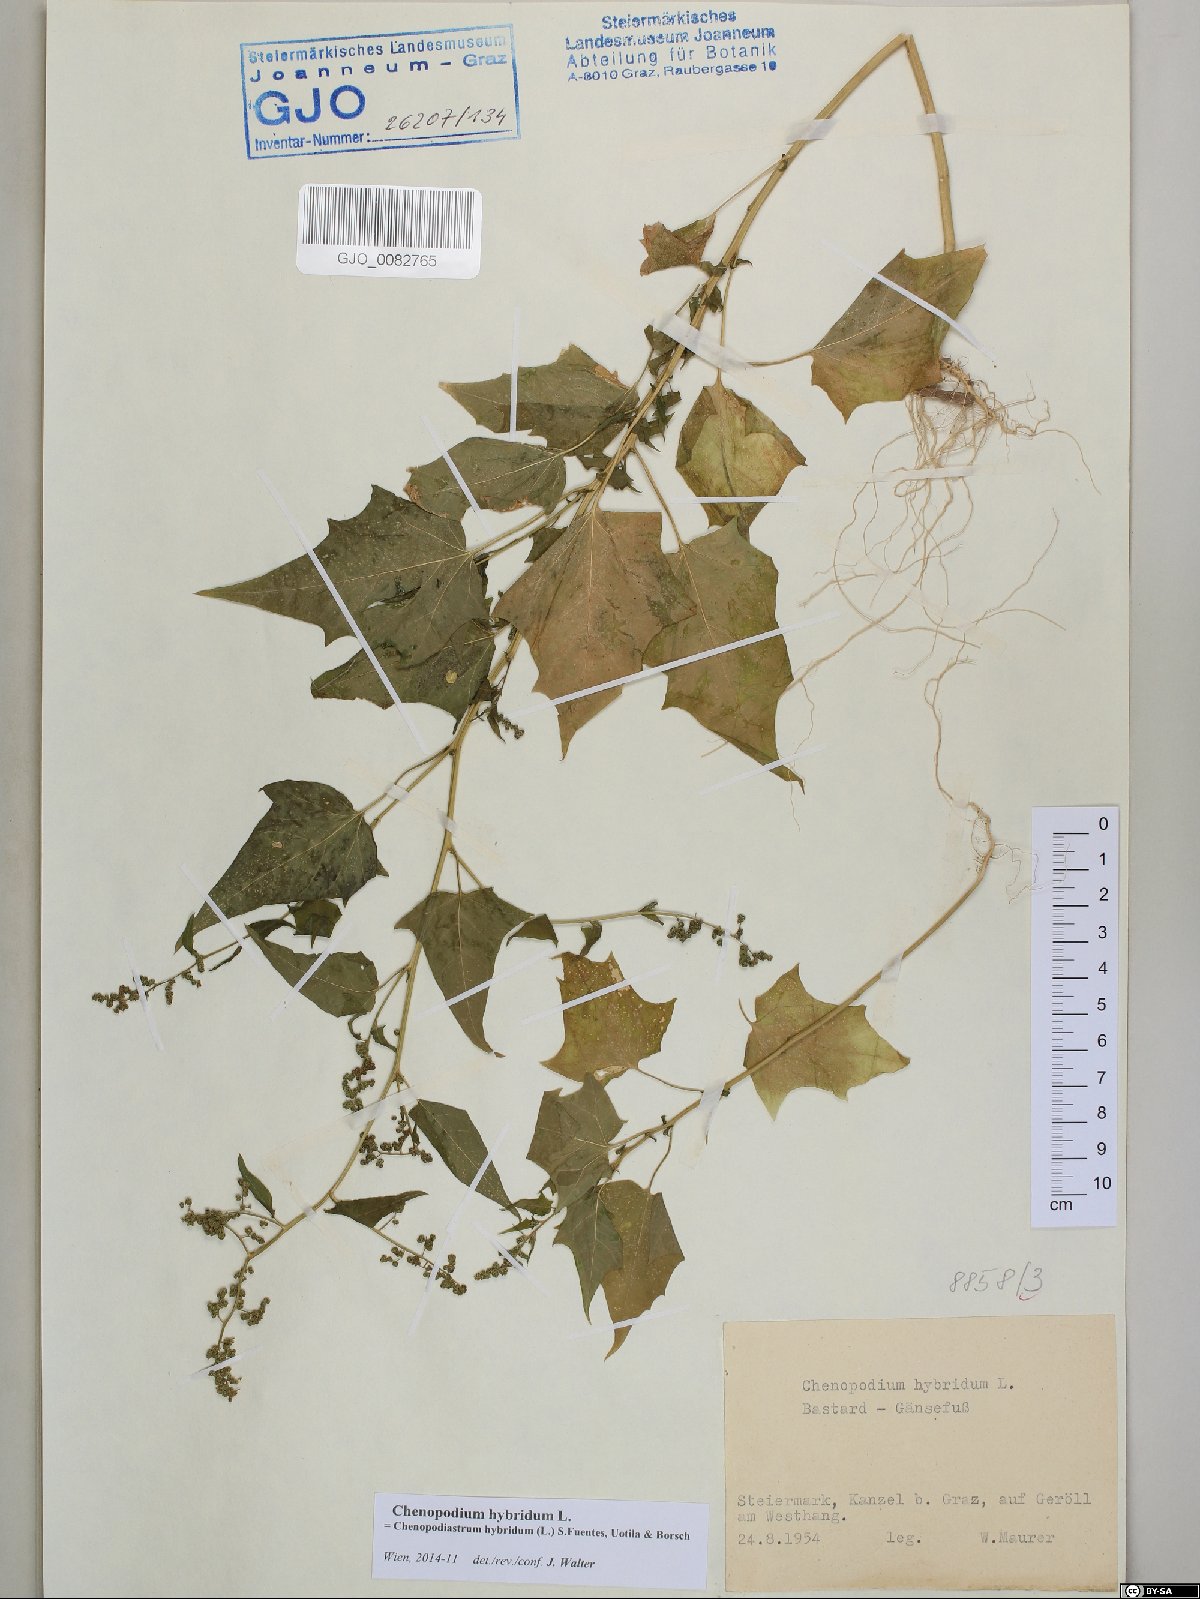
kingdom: Plantae
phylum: Tracheophyta
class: Magnoliopsida
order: Caryophyllales
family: Amaranthaceae
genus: Chenopodiastrum
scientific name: Chenopodiastrum hybridum
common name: Mapleleaf goosefoot
